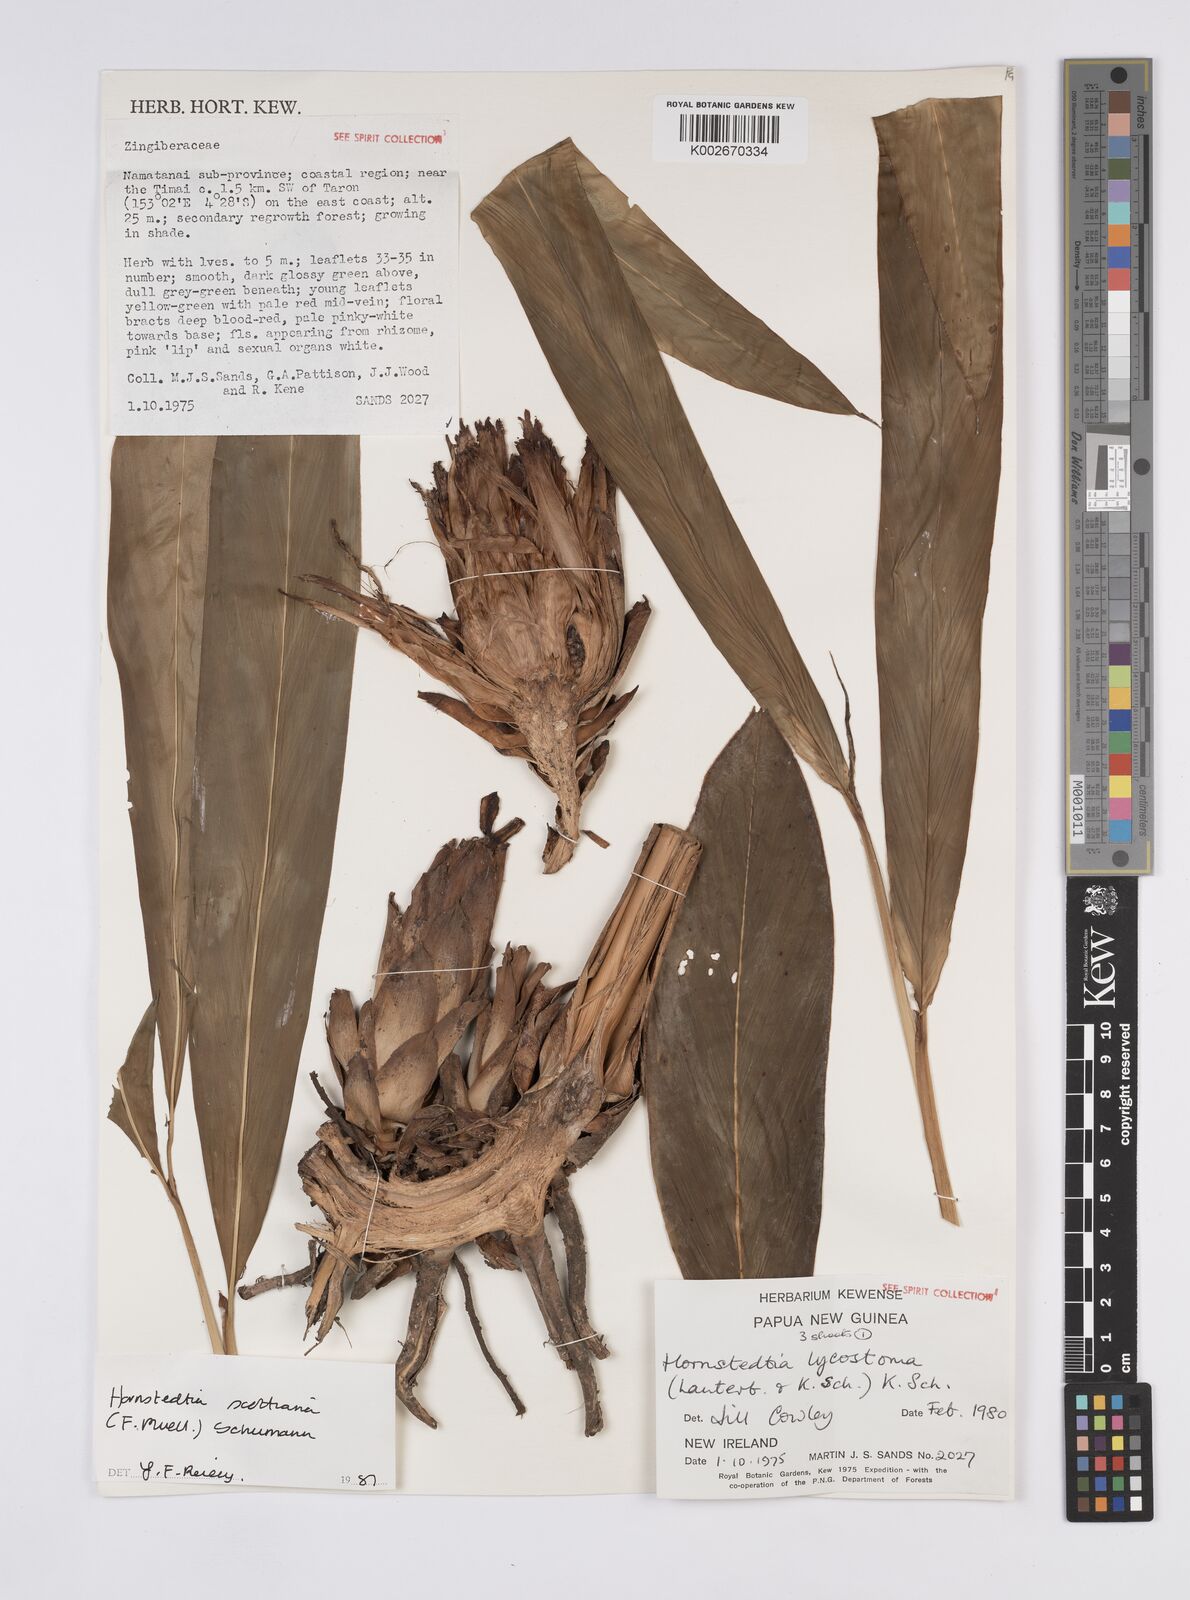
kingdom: Plantae
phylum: Tracheophyta
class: Liliopsida
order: Zingiberales
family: Zingiberaceae
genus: Hornstedtia
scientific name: Hornstedtia scottiana
